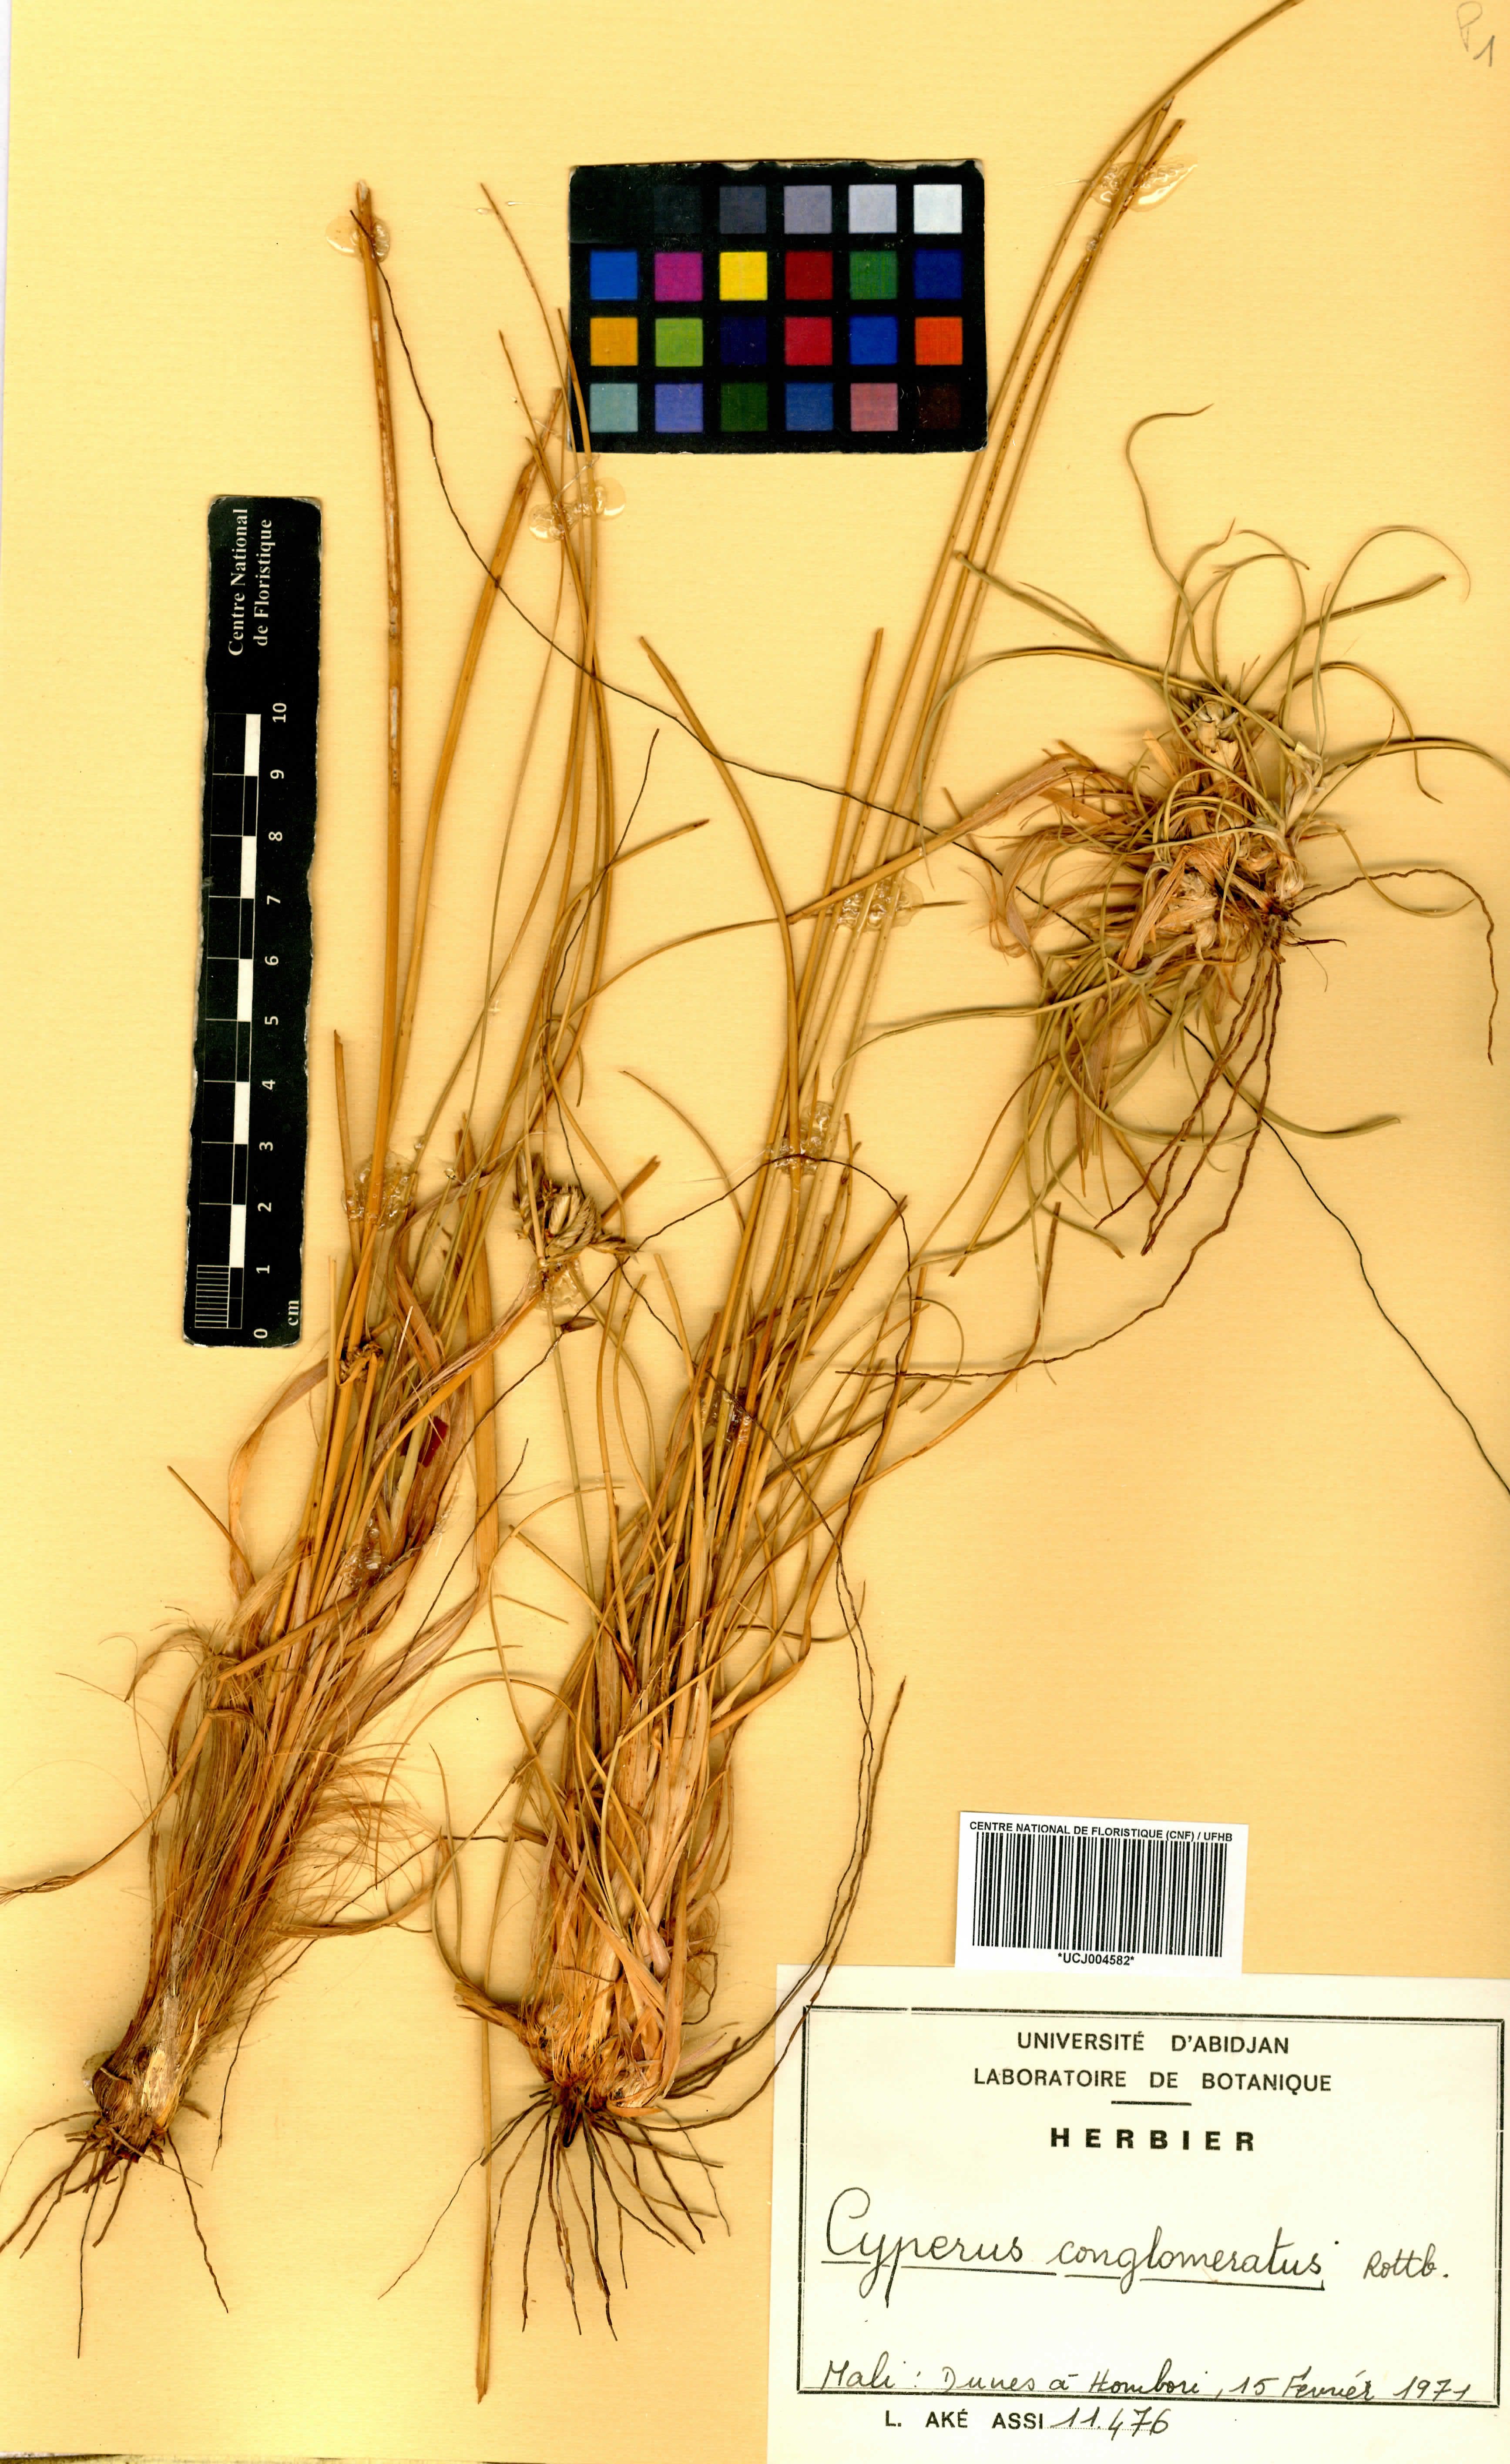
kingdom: Plantae
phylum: Tracheophyta
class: Liliopsida
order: Poales
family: Cyperaceae
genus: Cyperus
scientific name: Cyperus conglomeratus
